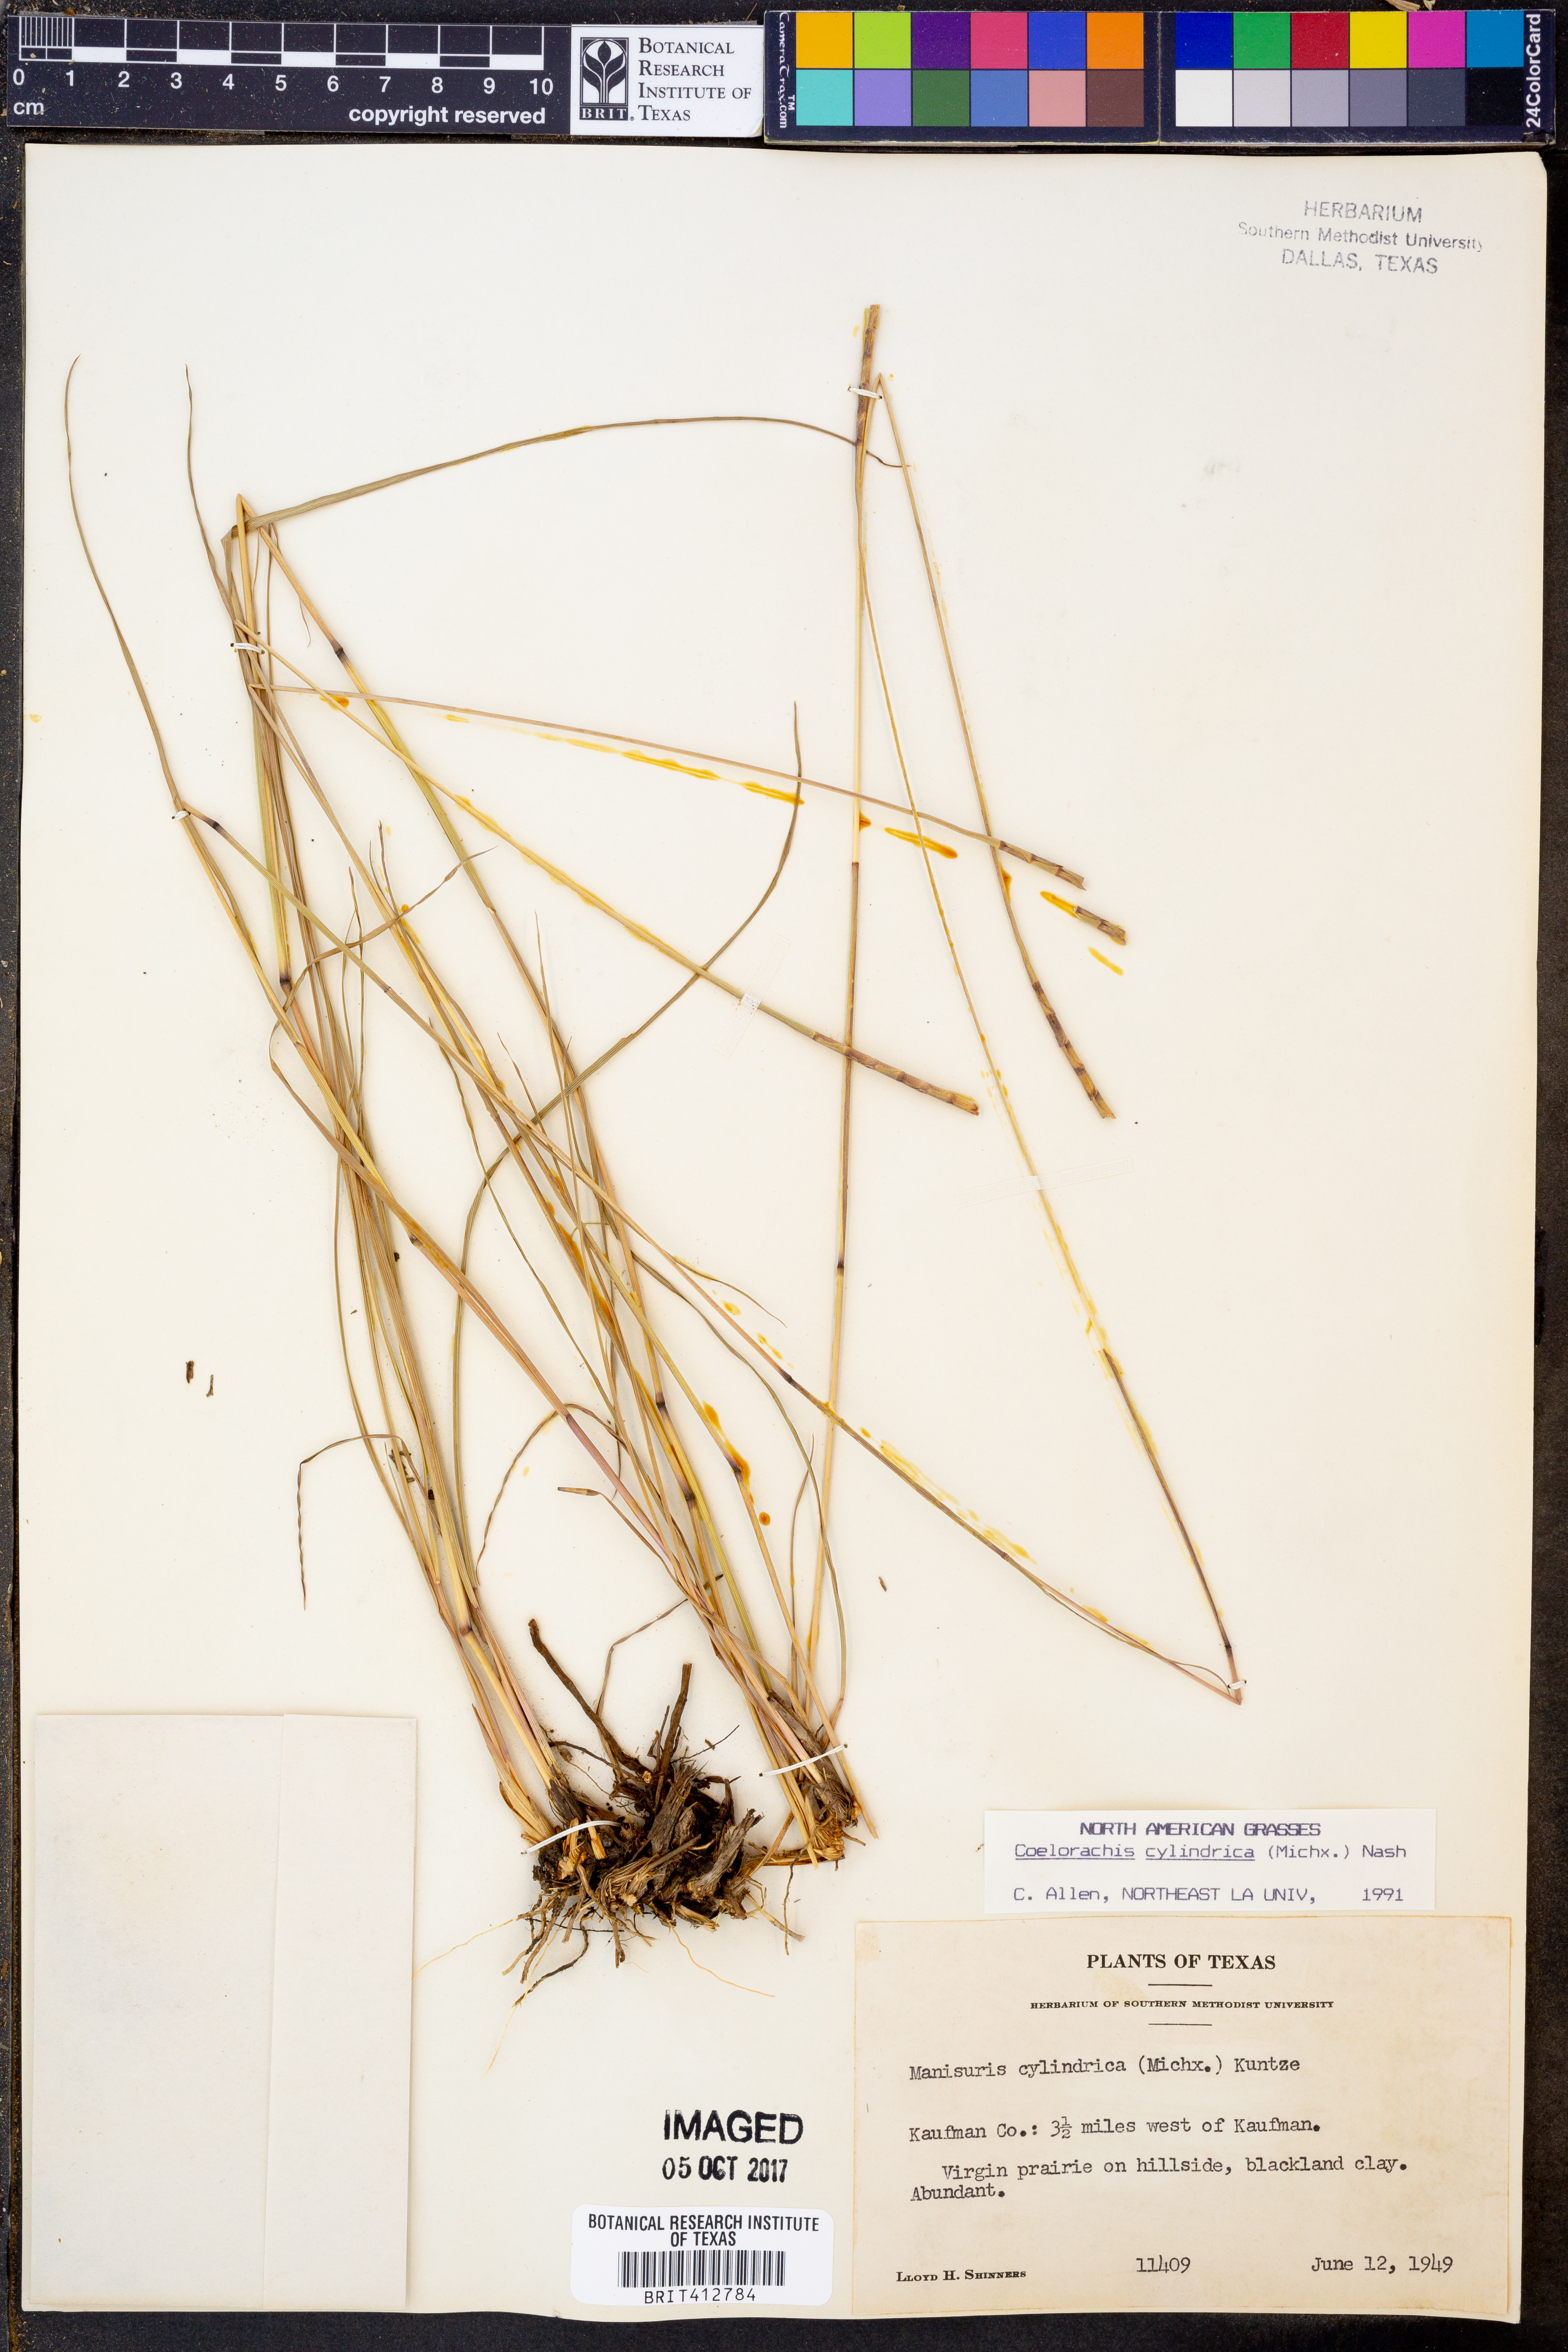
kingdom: Plantae
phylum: Tracheophyta
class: Liliopsida
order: Poales
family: Poaceae
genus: Rottboellia
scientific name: Rottboellia campestris
